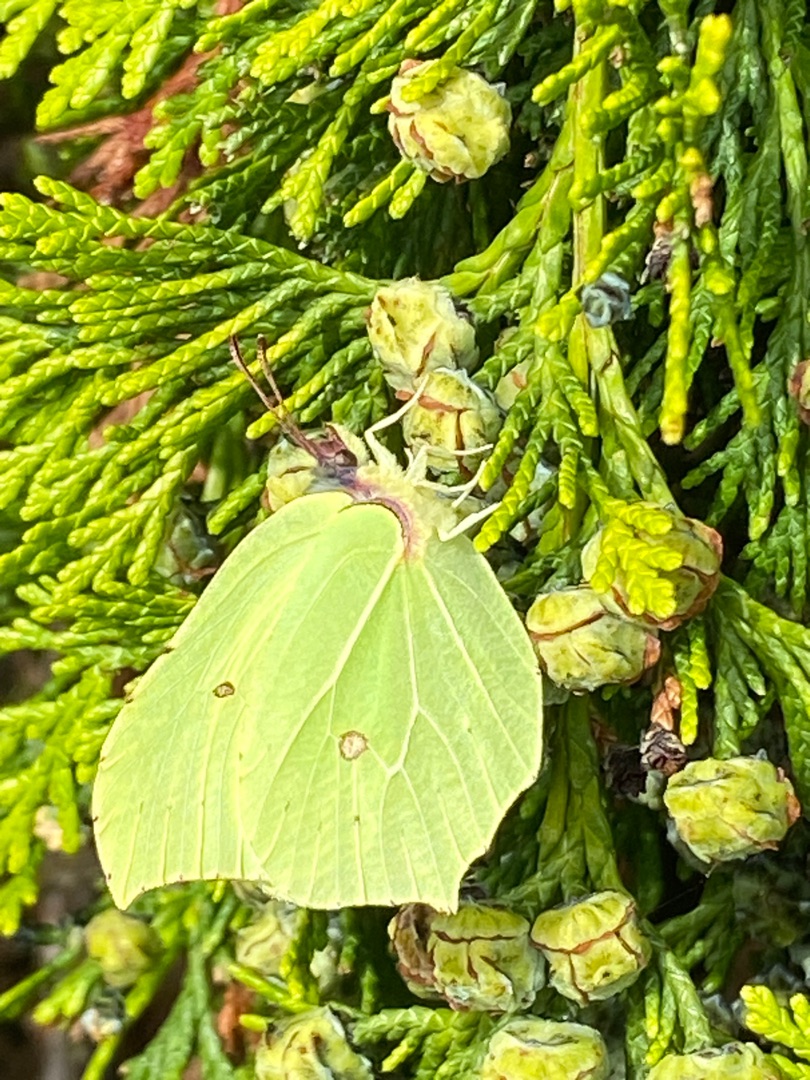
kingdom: Animalia
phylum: Arthropoda
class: Insecta
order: Lepidoptera
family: Pieridae
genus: Gonepteryx
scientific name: Gonepteryx rhamni
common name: Citronsommerfugl
